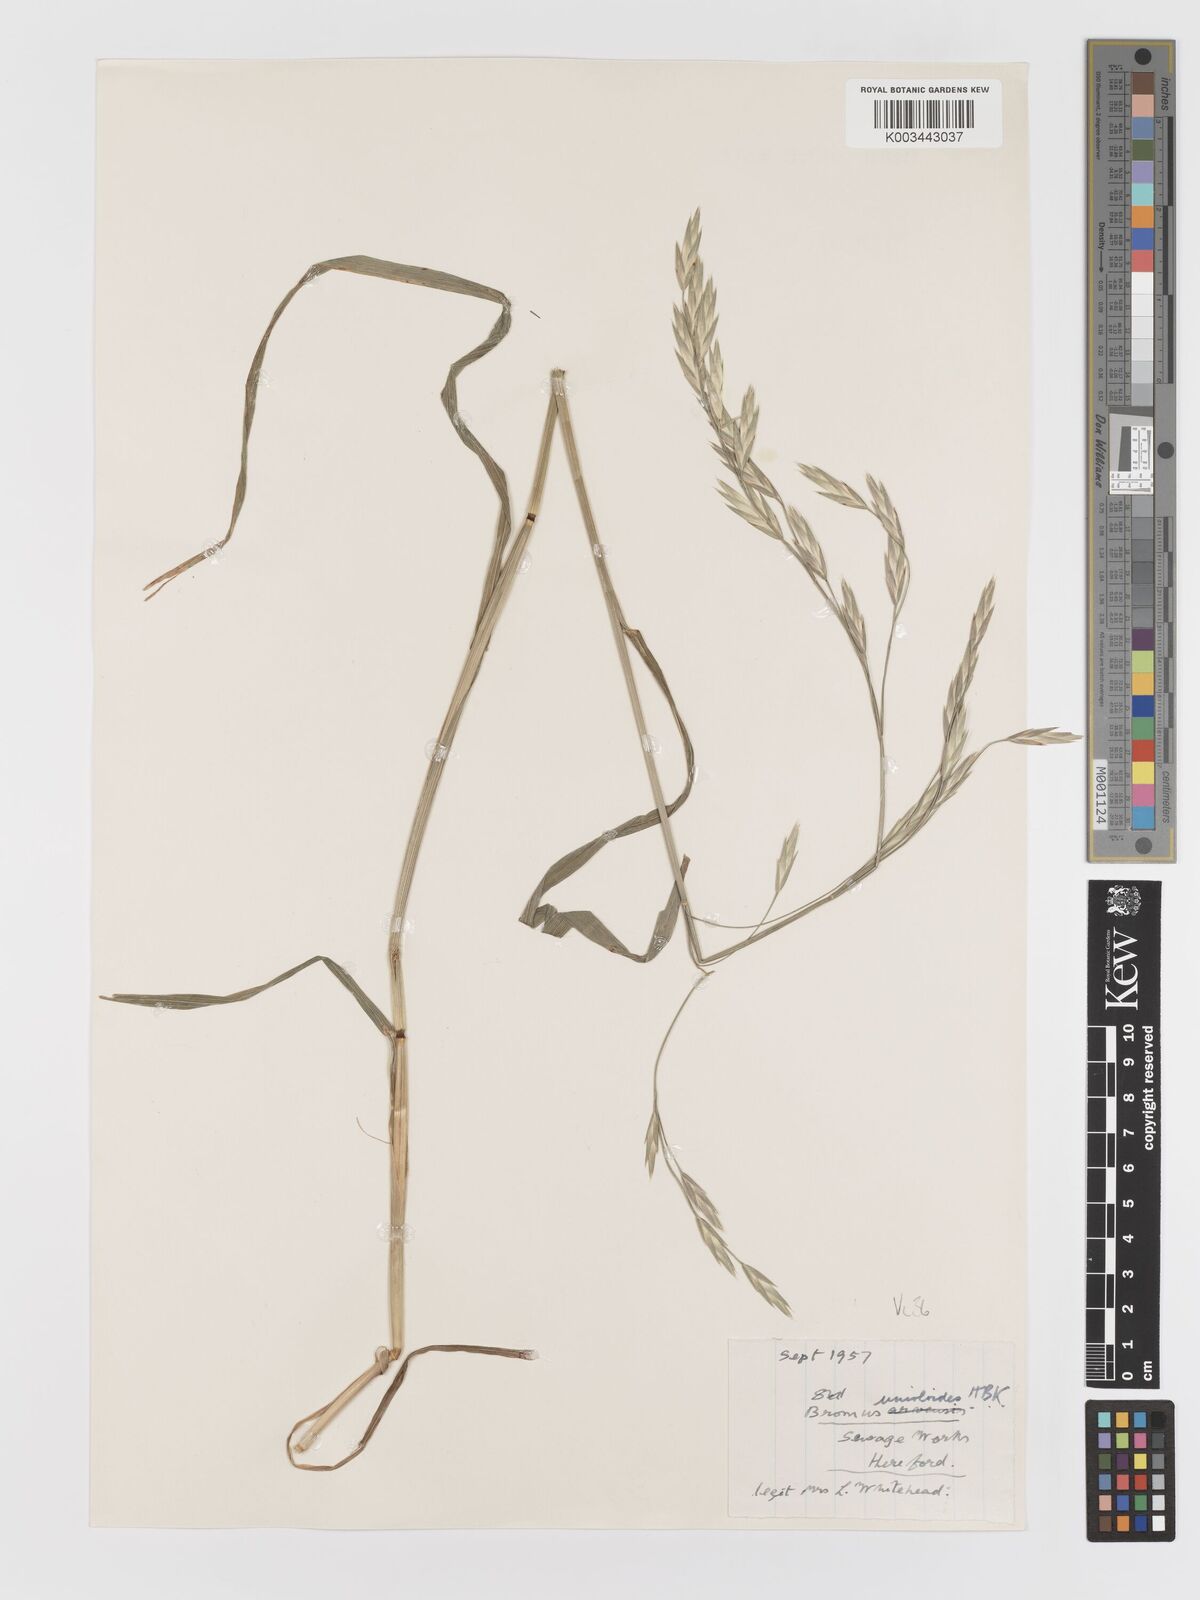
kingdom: Plantae
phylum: Tracheophyta
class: Liliopsida
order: Poales
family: Poaceae
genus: Bromus
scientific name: Bromus catharticus
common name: Rescuegrass
